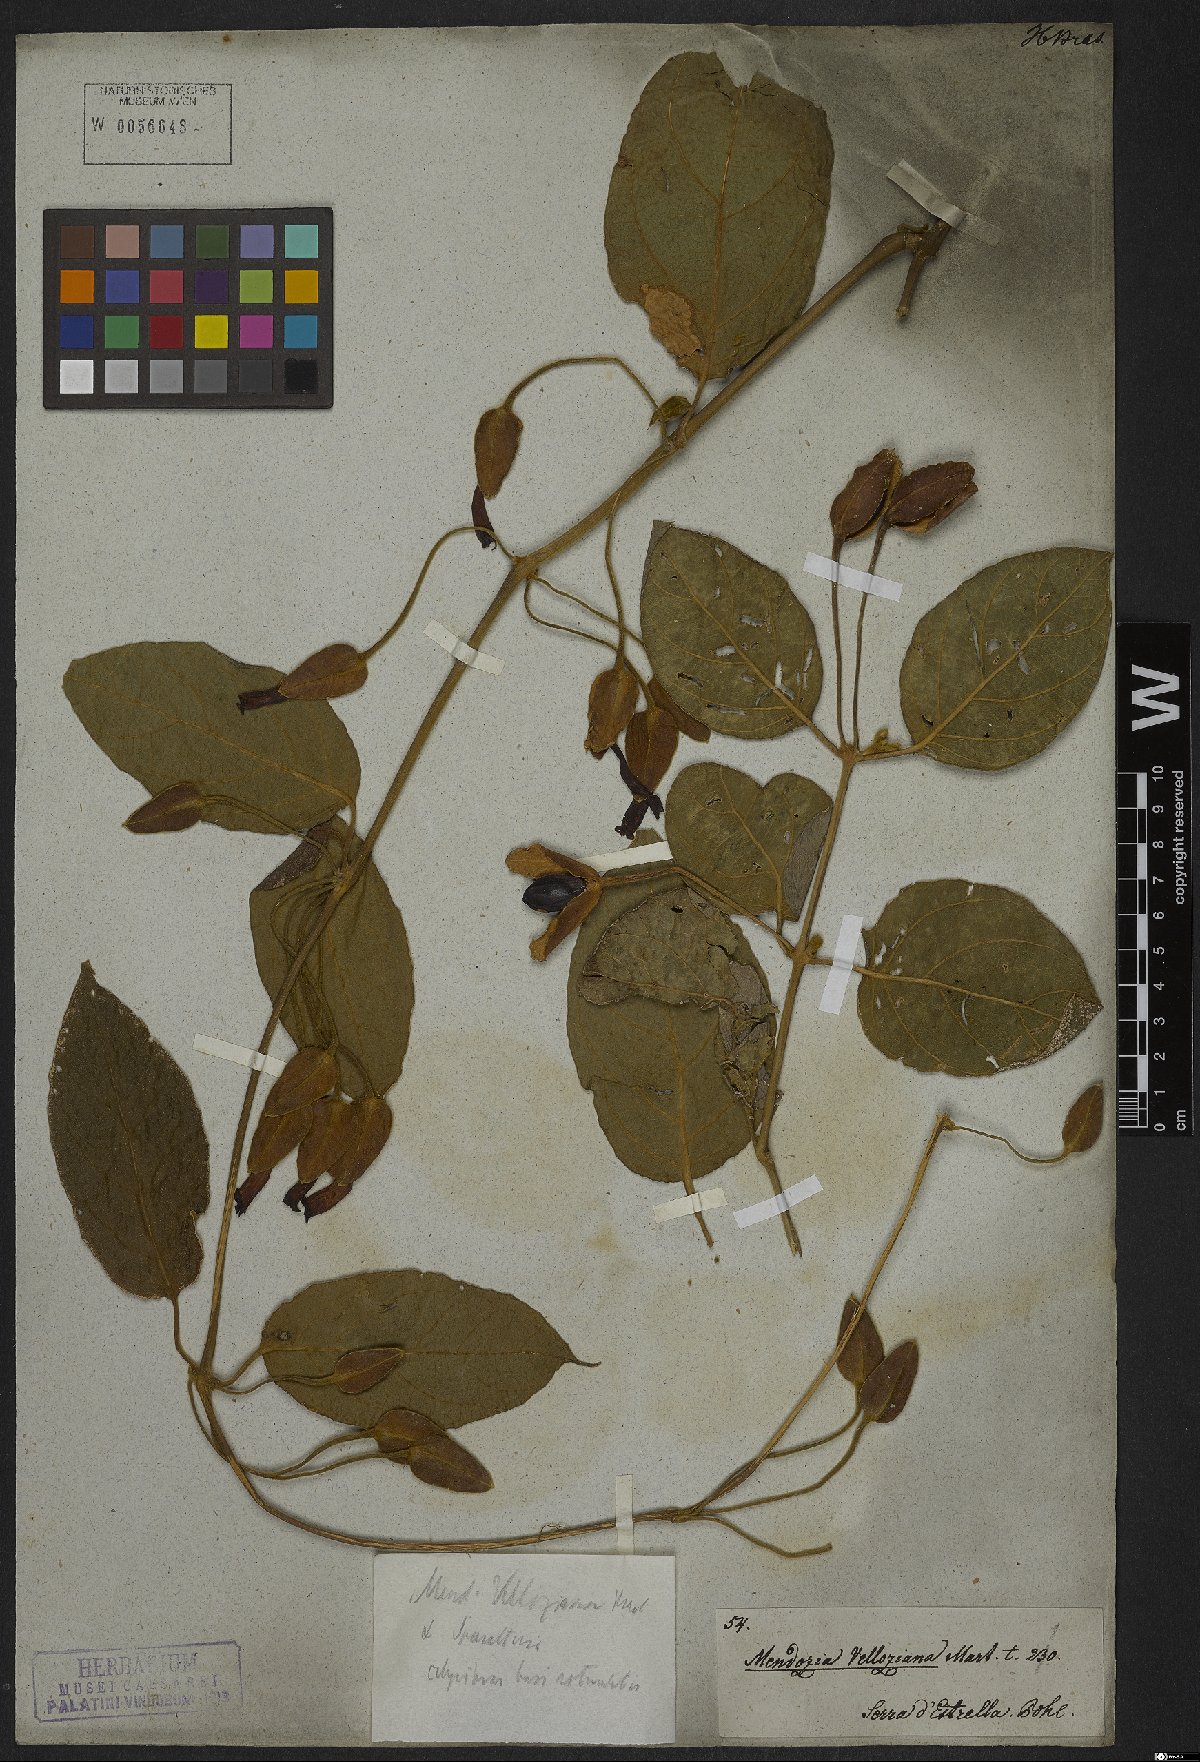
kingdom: Plantae
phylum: Tracheophyta
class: Magnoliopsida
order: Lamiales
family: Acanthaceae
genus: Mendoncia
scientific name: Mendoncia coccinea
